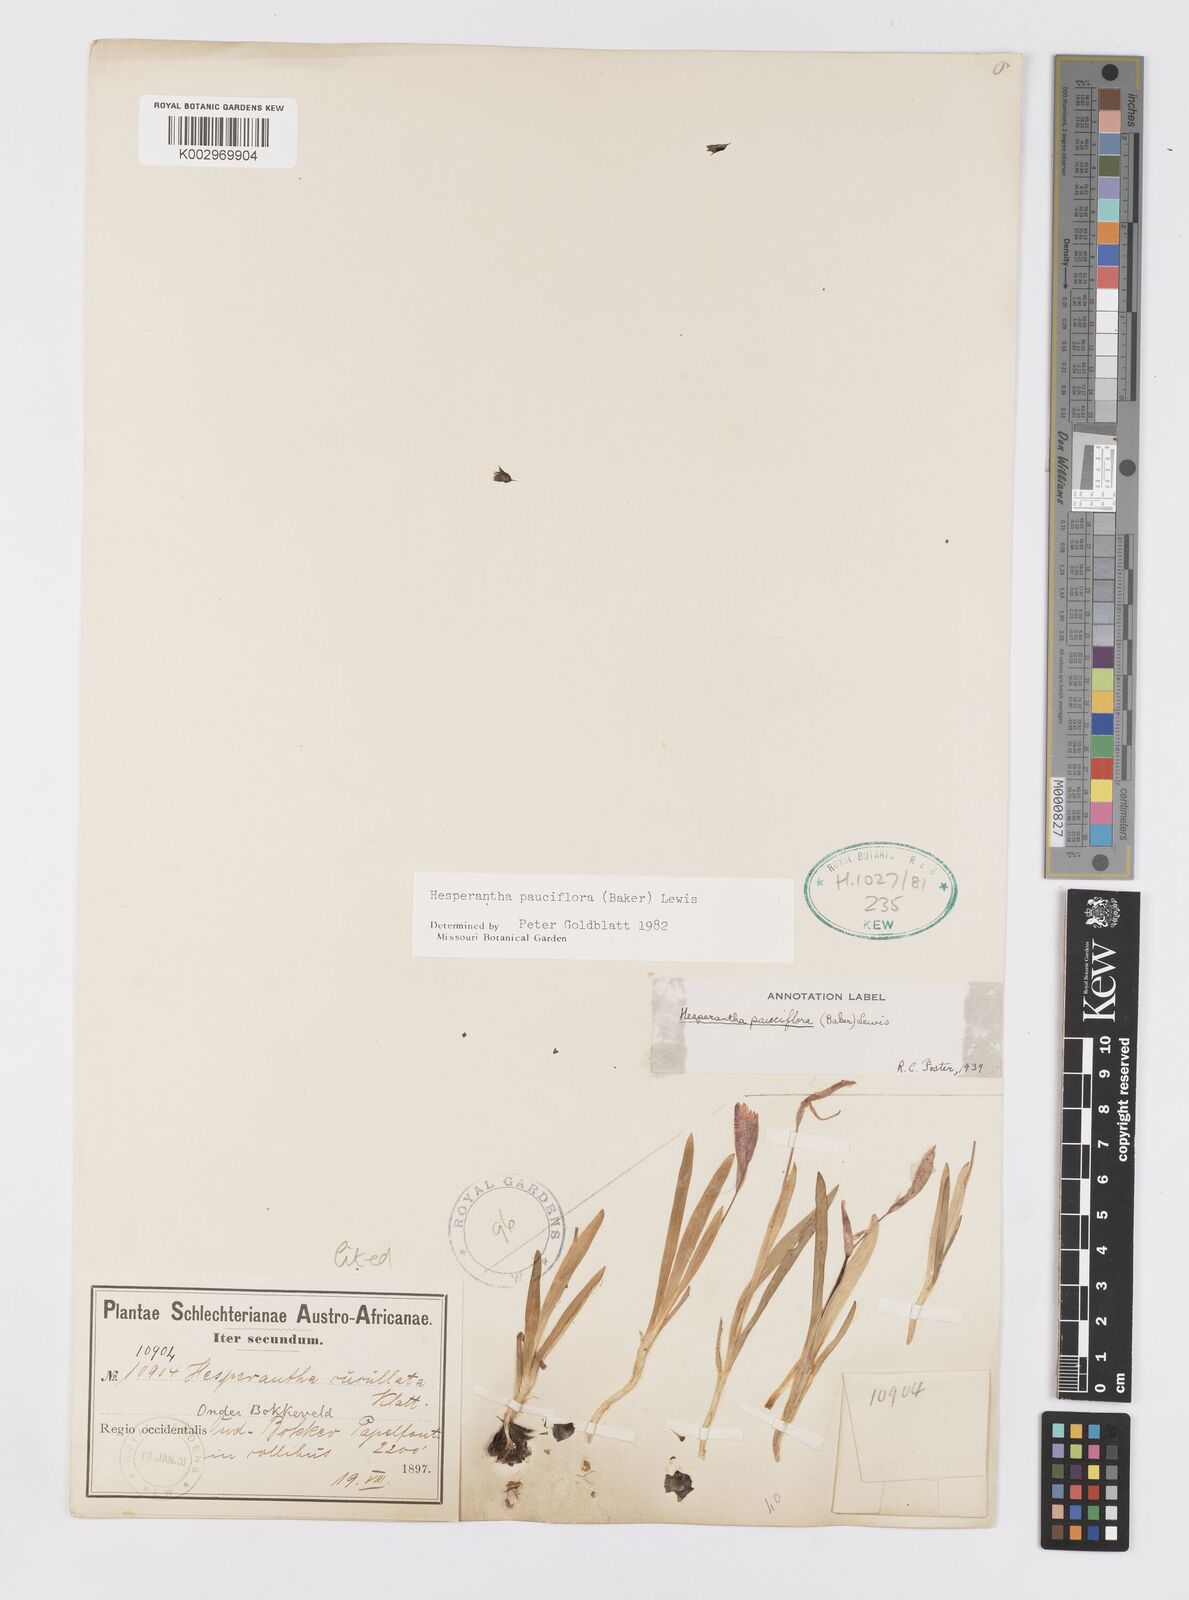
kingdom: Plantae
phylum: Tracheophyta
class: Liliopsida
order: Asparagales
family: Iridaceae
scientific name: Iridaceae
